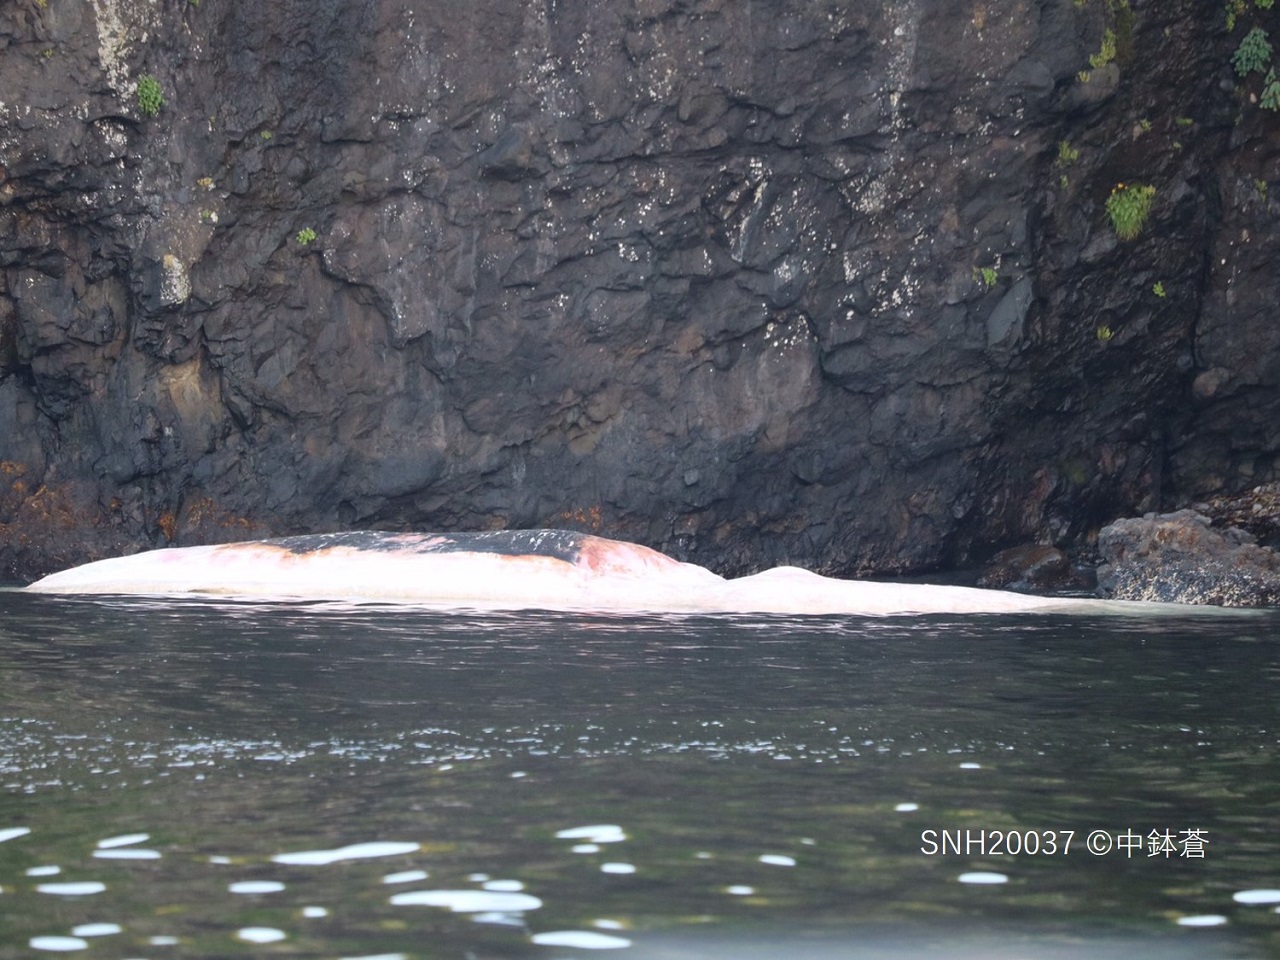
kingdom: Animalia
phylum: Chordata
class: Mammalia
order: Cetacea
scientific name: Cetacea
